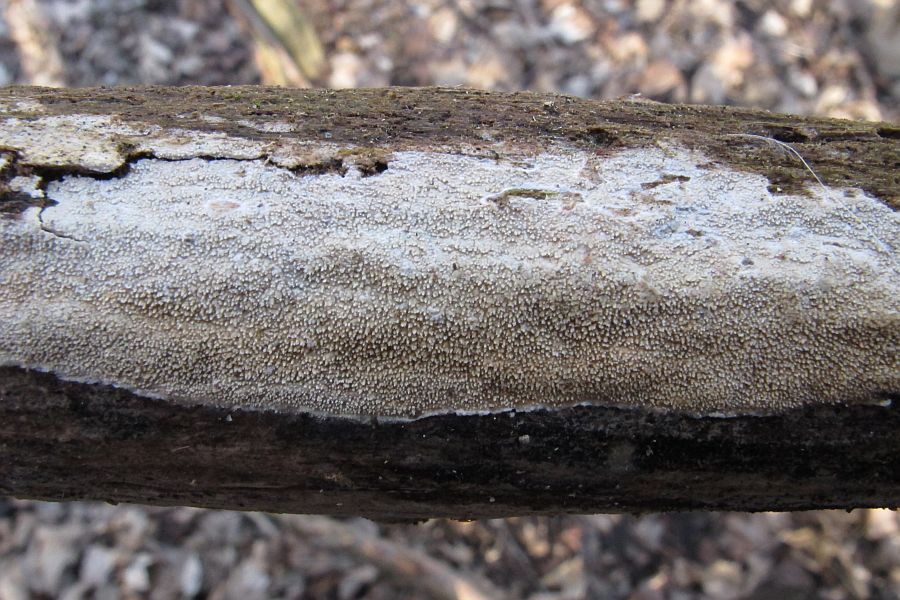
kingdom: Fungi
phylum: Basidiomycota
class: Agaricomycetes
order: Corticiales
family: Corticiaceae
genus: Lyomyces
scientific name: Lyomyces crustosus
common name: vortet hyldehinde
